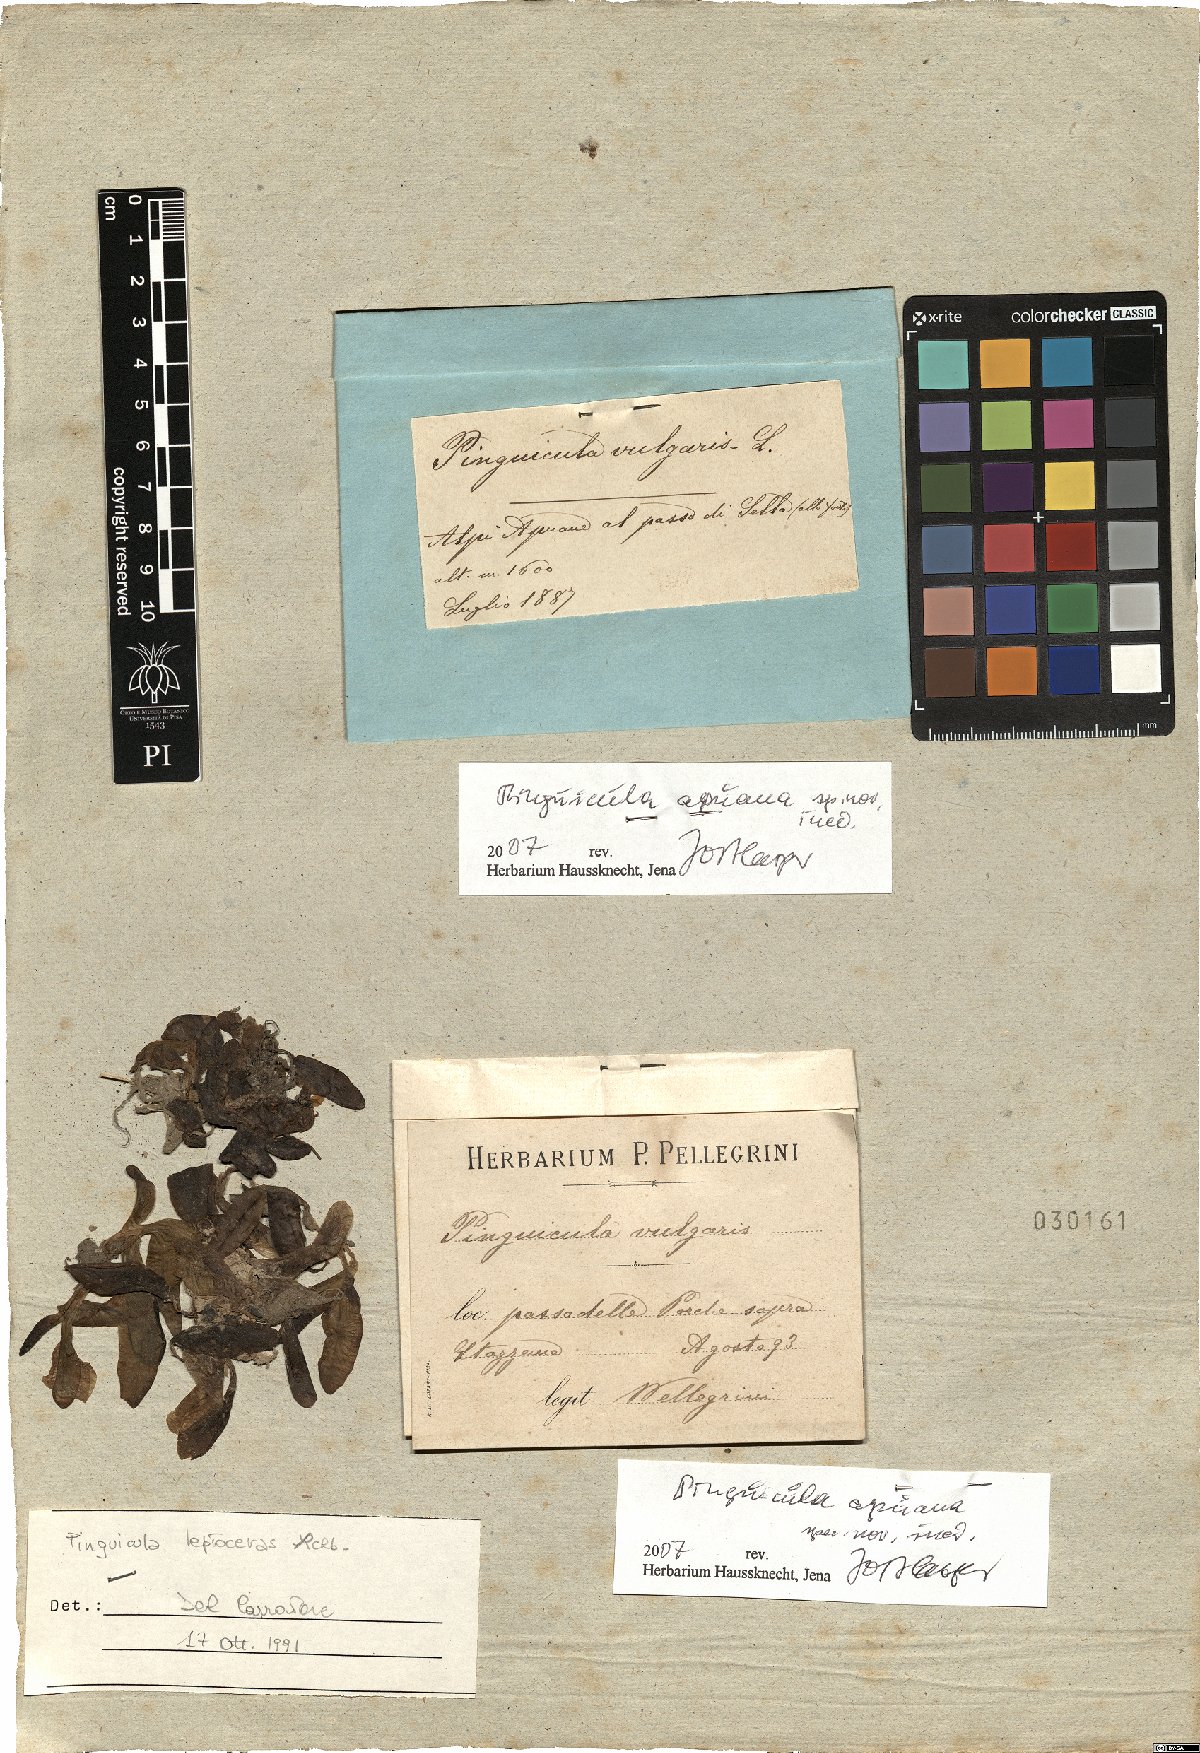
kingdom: Plantae
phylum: Tracheophyta
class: Magnoliopsida
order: Lamiales
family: Lentibulariaceae
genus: Pinguicula
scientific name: Pinguicula apuana
